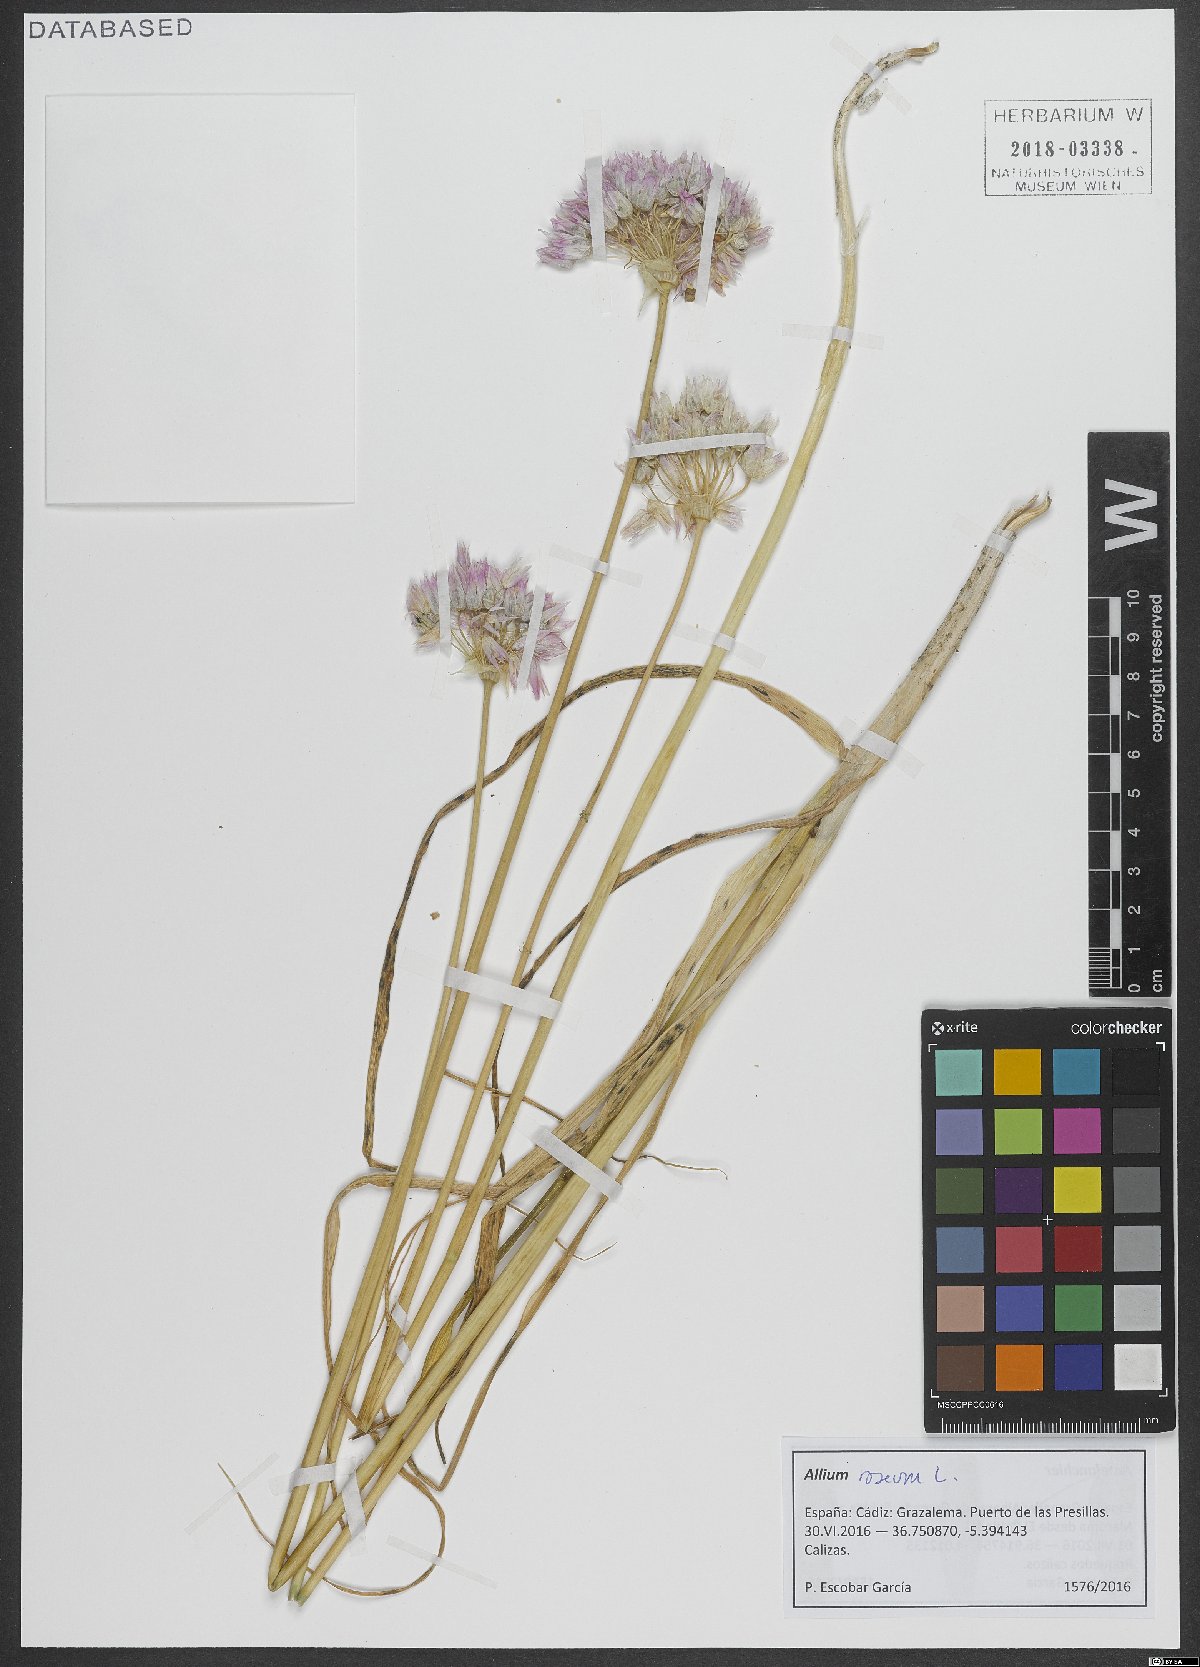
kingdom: Plantae
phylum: Tracheophyta
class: Liliopsida
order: Asparagales
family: Amaryllidaceae
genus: Allium
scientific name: Allium roseum
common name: Rosy garlic
